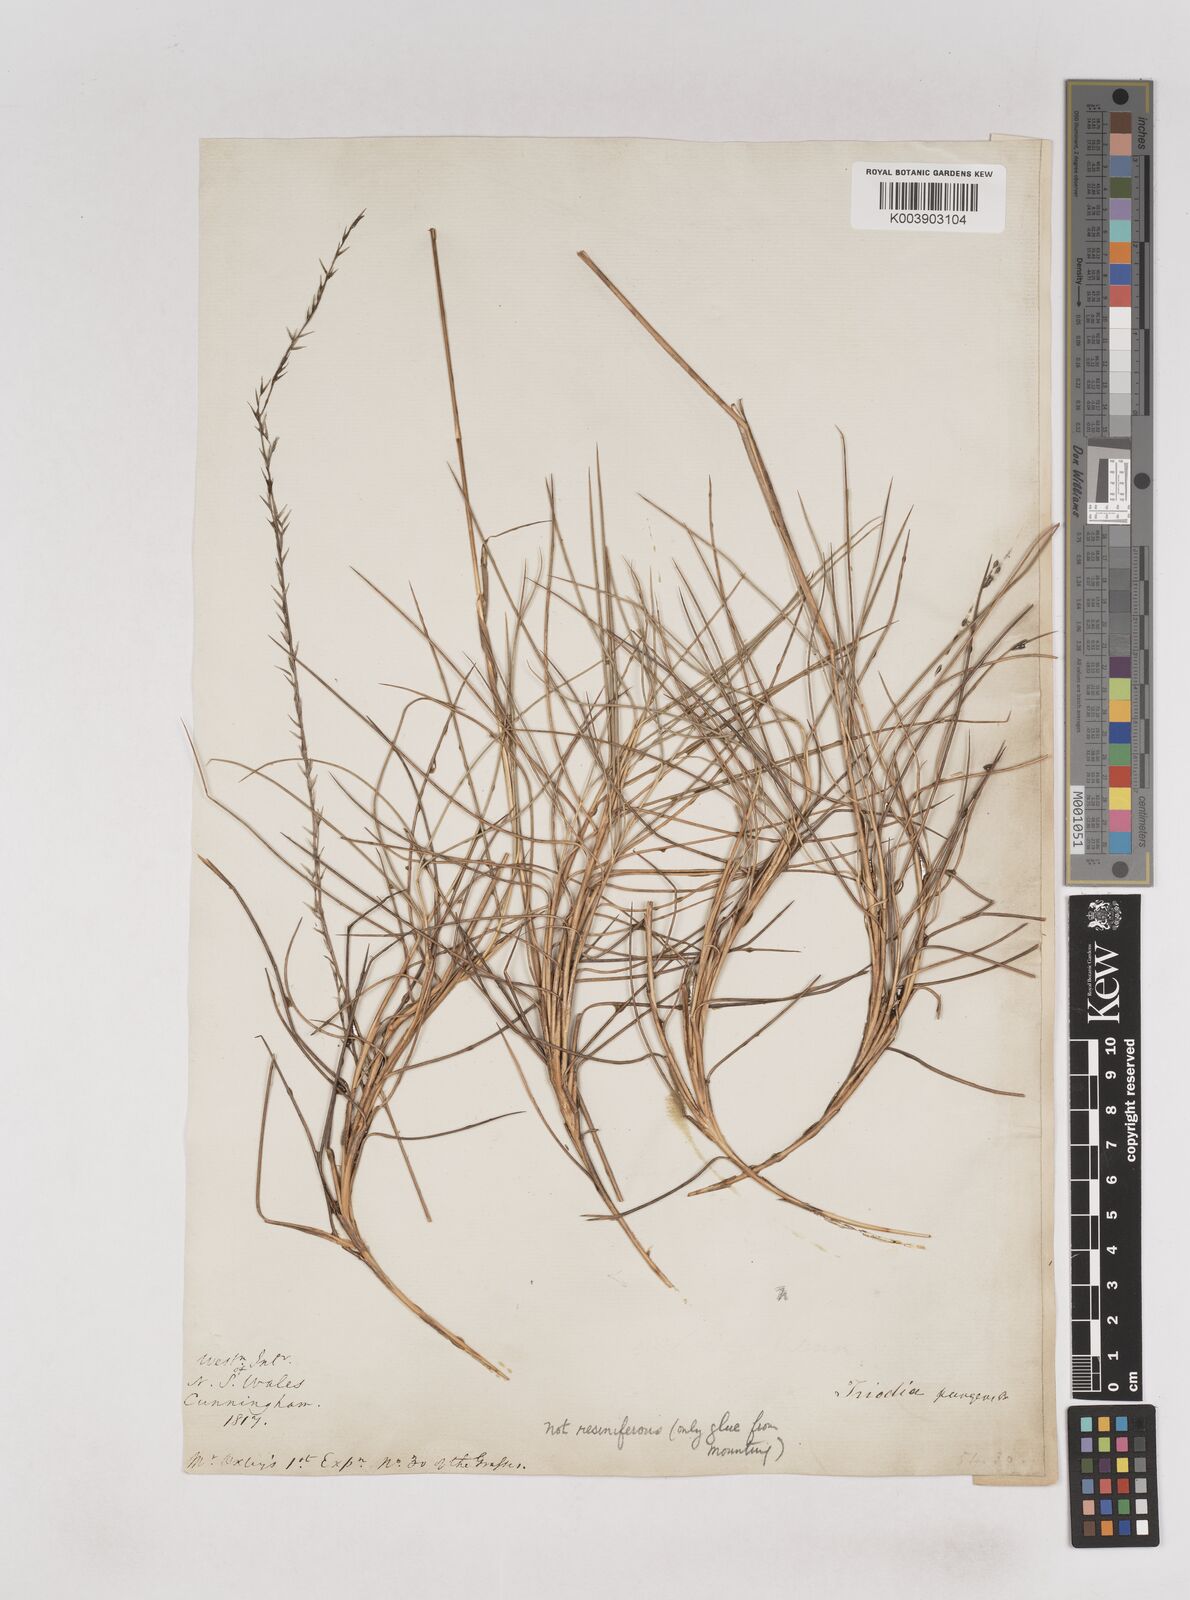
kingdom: Plantae
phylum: Tracheophyta
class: Liliopsida
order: Poales
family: Poaceae
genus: Triodia
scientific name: Triodia scariosa
